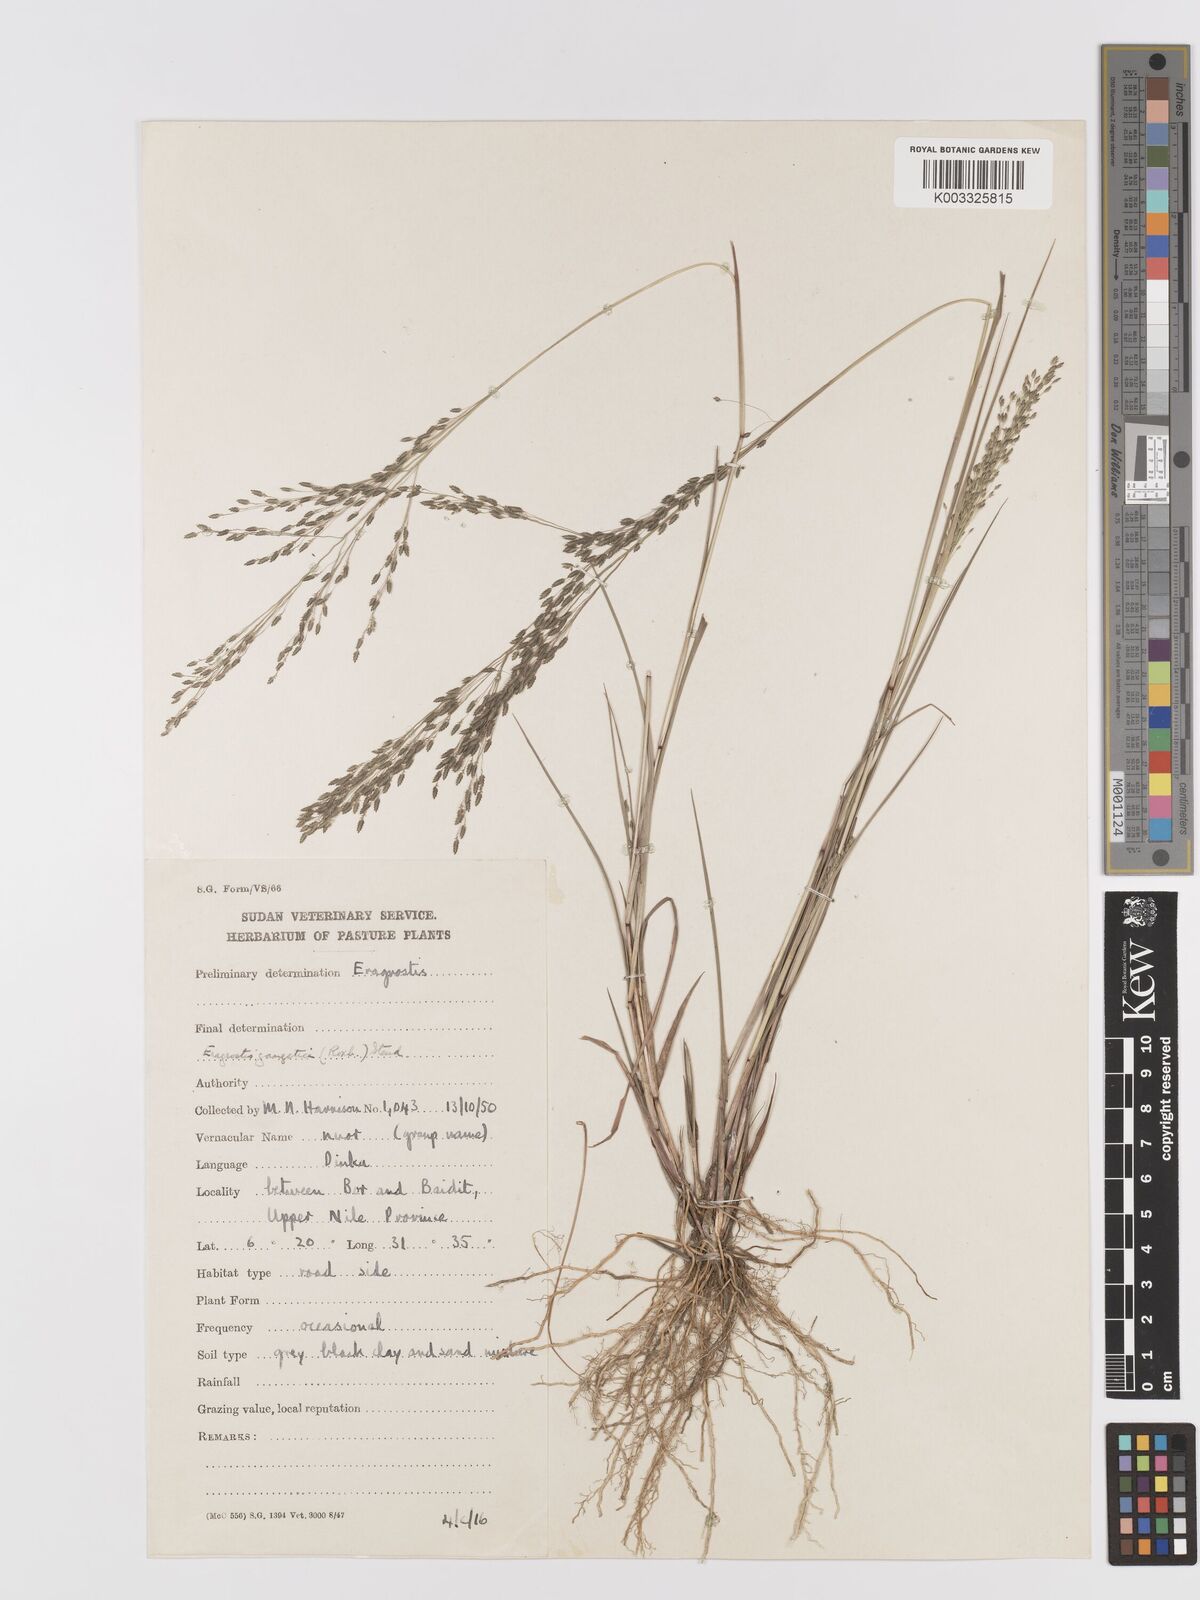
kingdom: Plantae
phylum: Tracheophyta
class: Liliopsida
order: Poales
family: Poaceae
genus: Eragrostis
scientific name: Eragrostis gangetica
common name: Slimflower lovegrass
